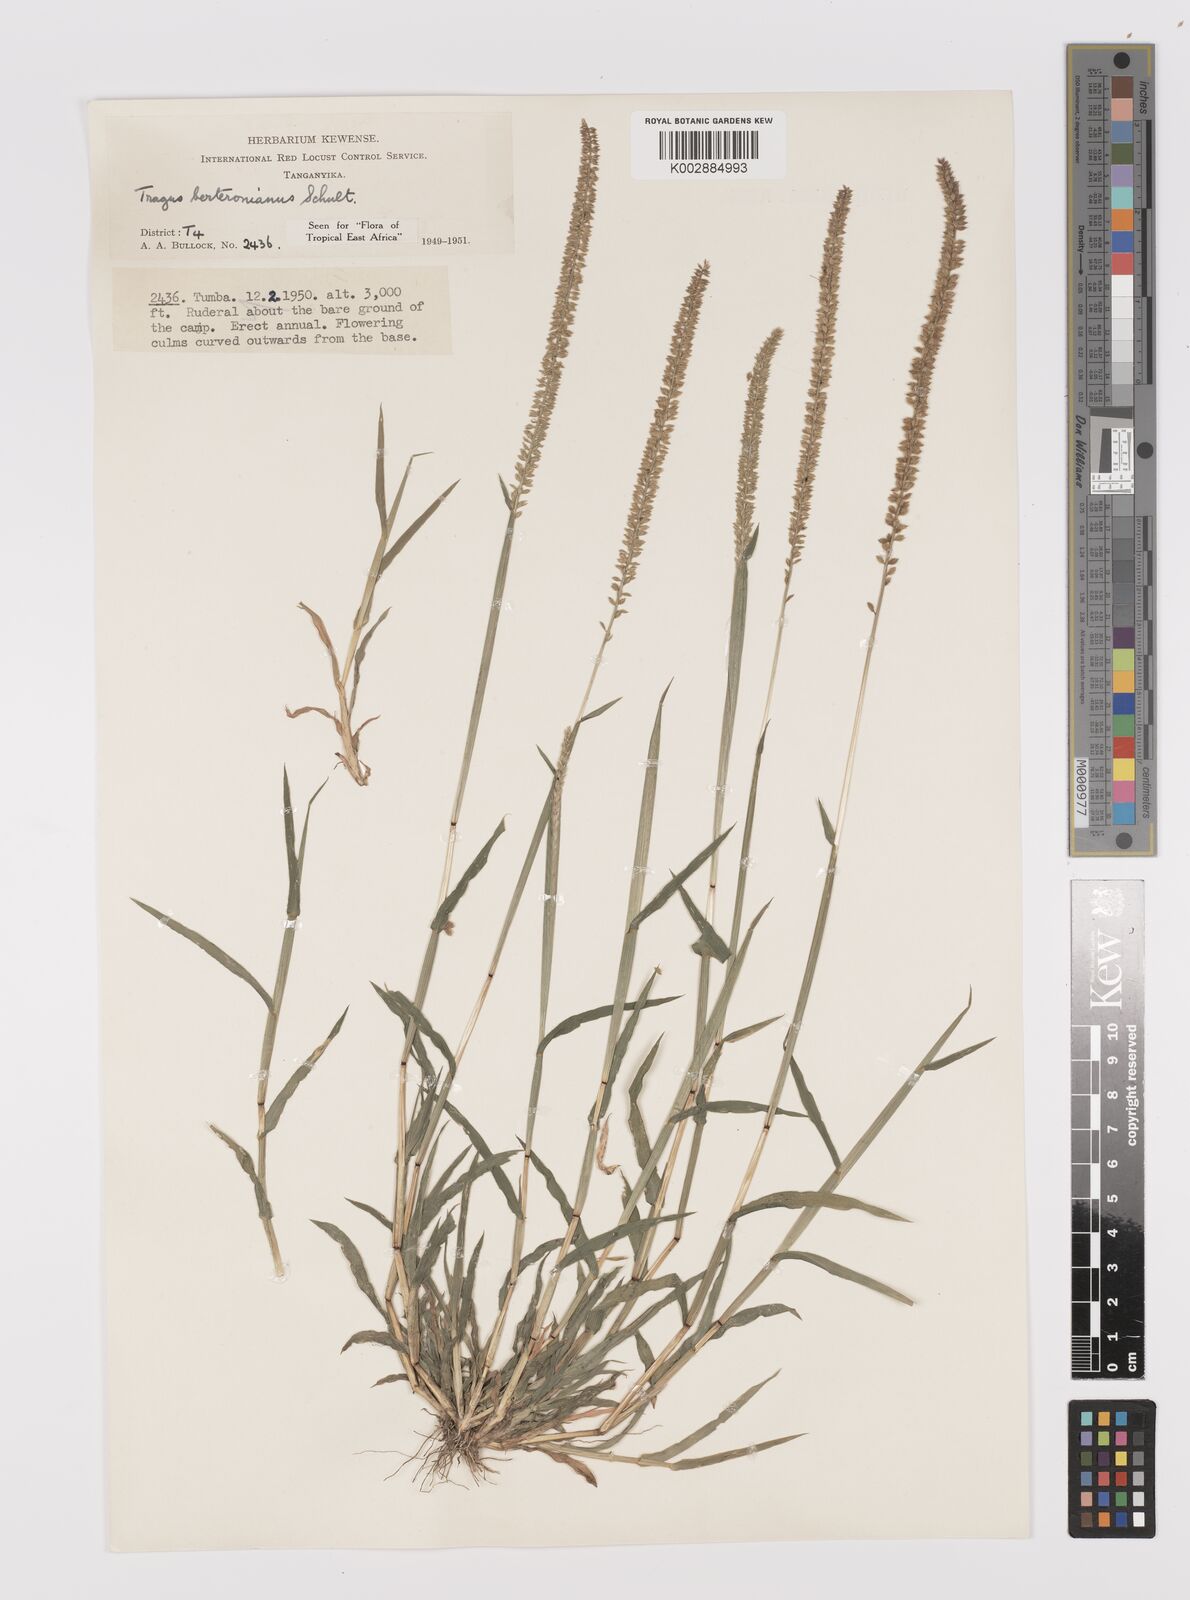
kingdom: Plantae
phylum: Tracheophyta
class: Liliopsida
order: Poales
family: Poaceae
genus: Tragus
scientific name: Tragus berteronianus
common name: African bur-grass
